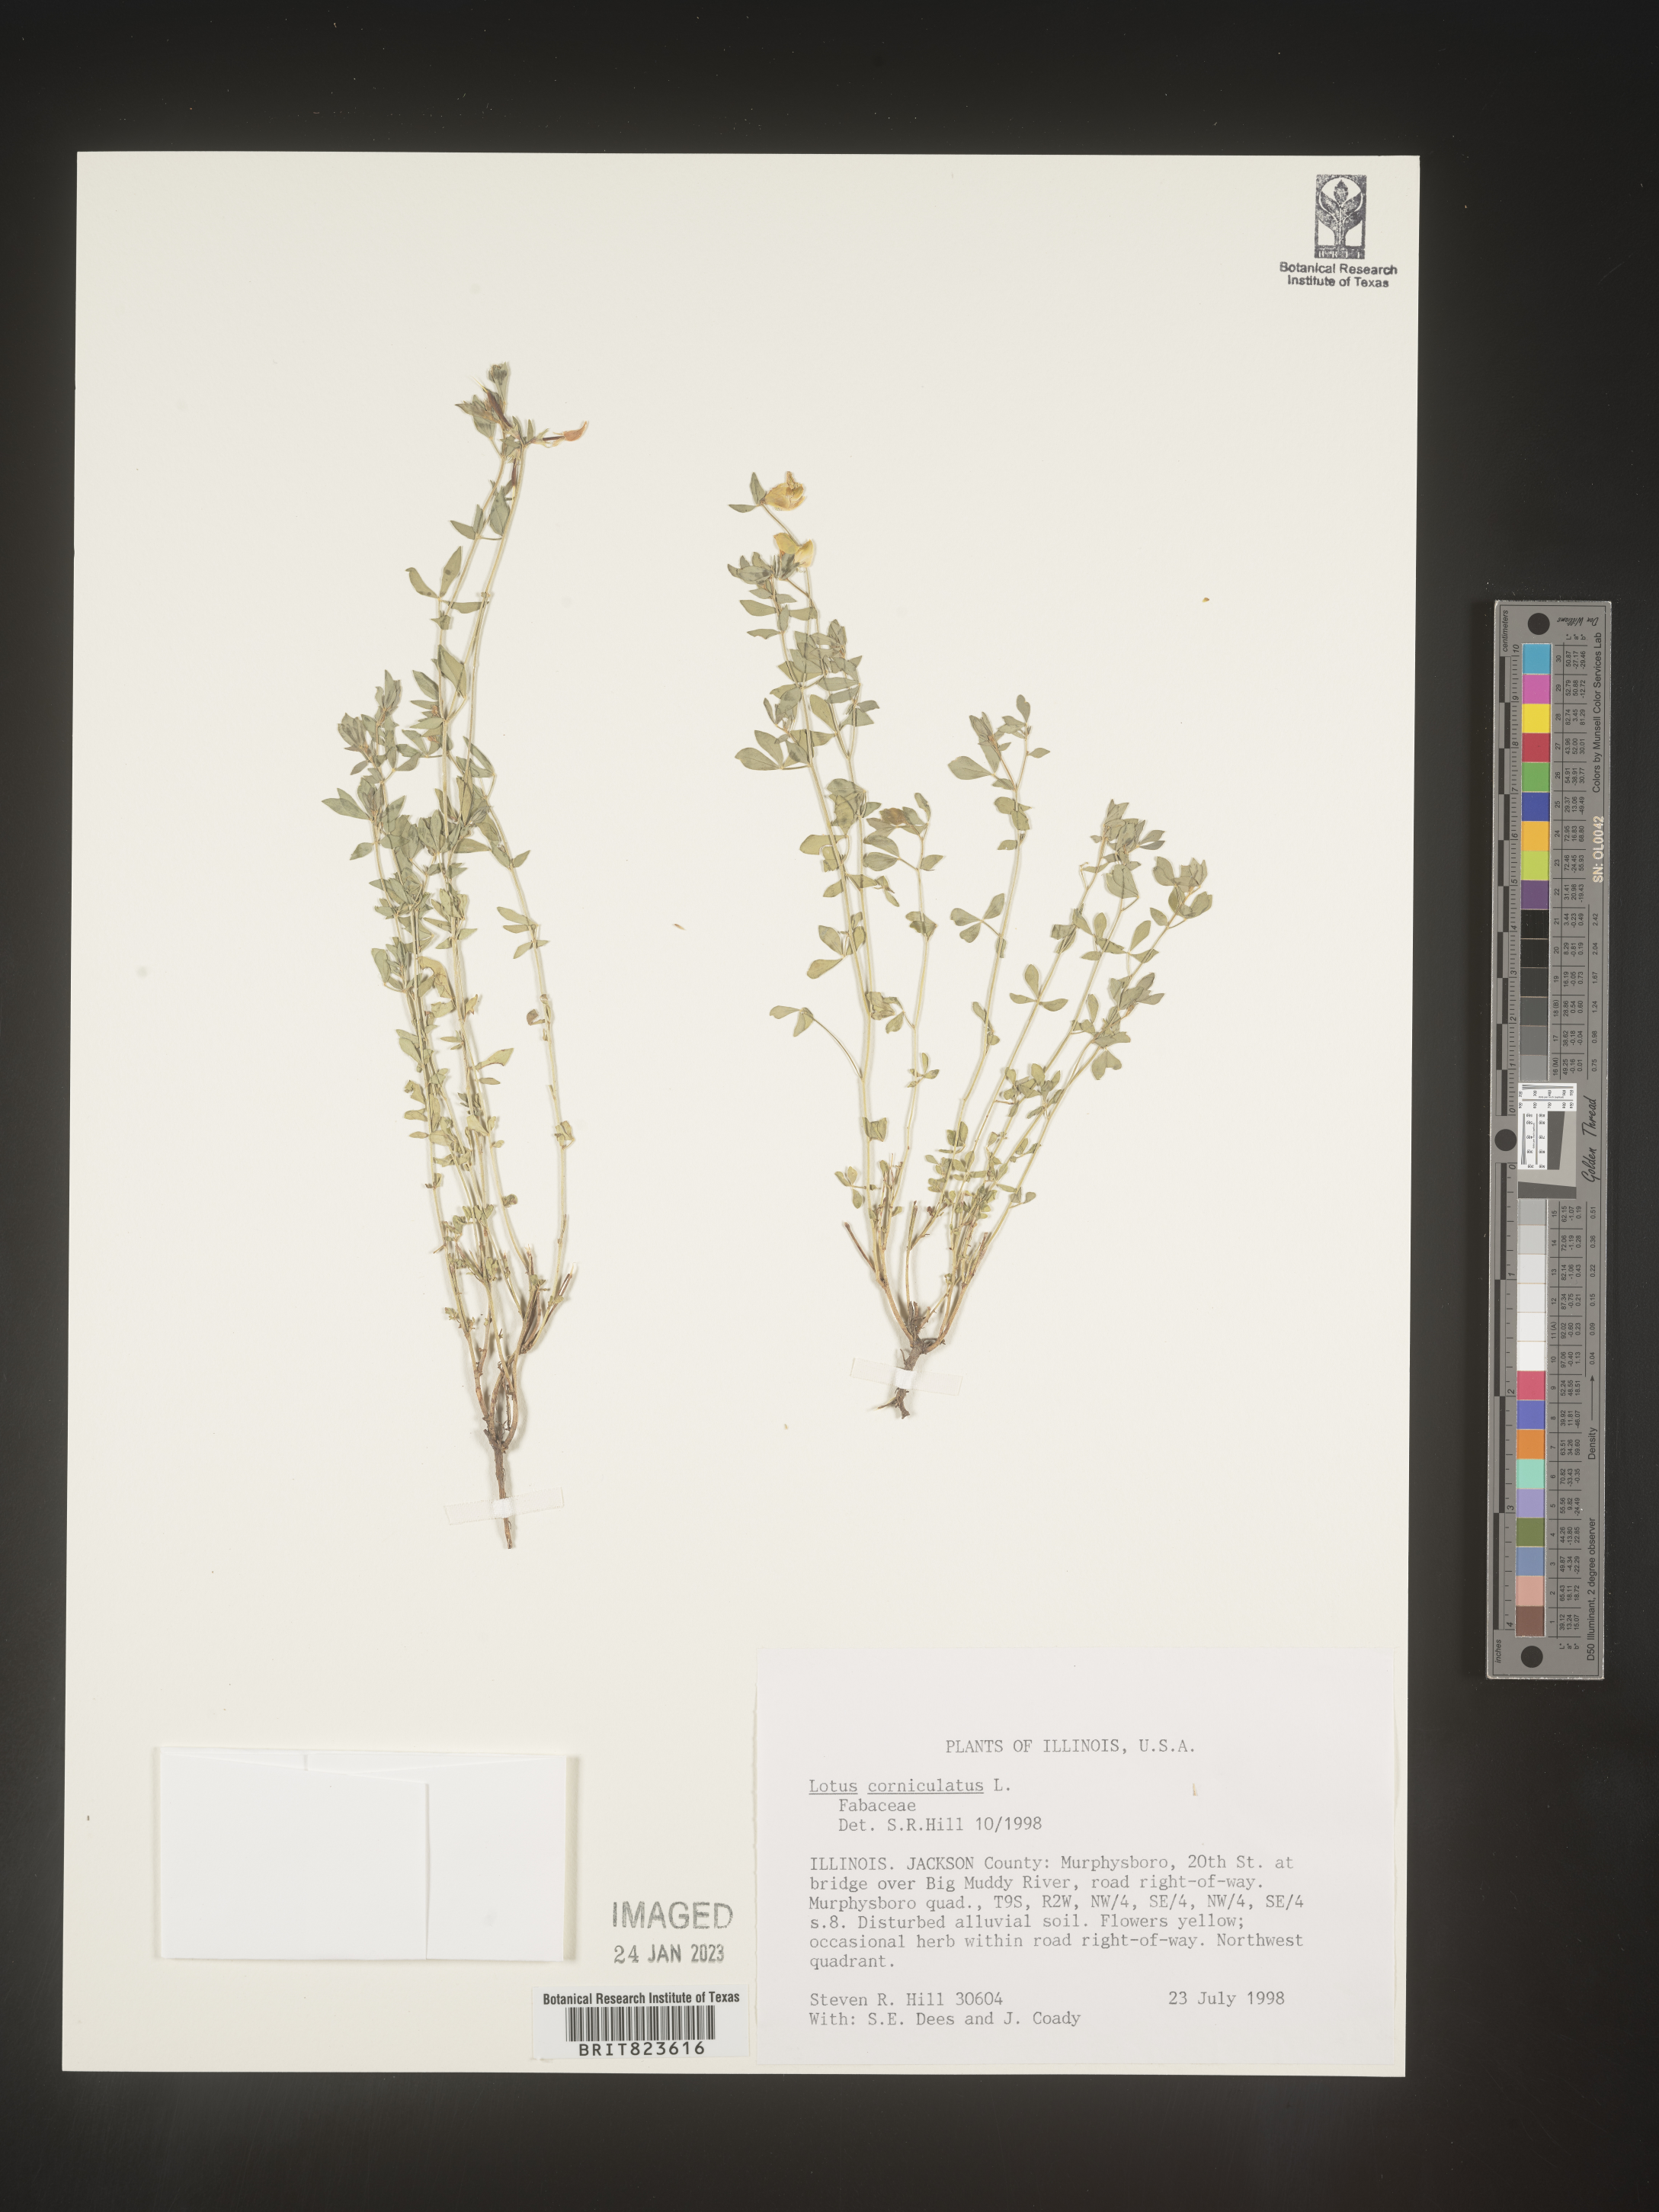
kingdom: Plantae
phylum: Tracheophyta
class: Magnoliopsida
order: Fabales
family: Fabaceae
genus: Lotus
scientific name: Lotus corniculatus
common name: Common bird's-foot-trefoil
